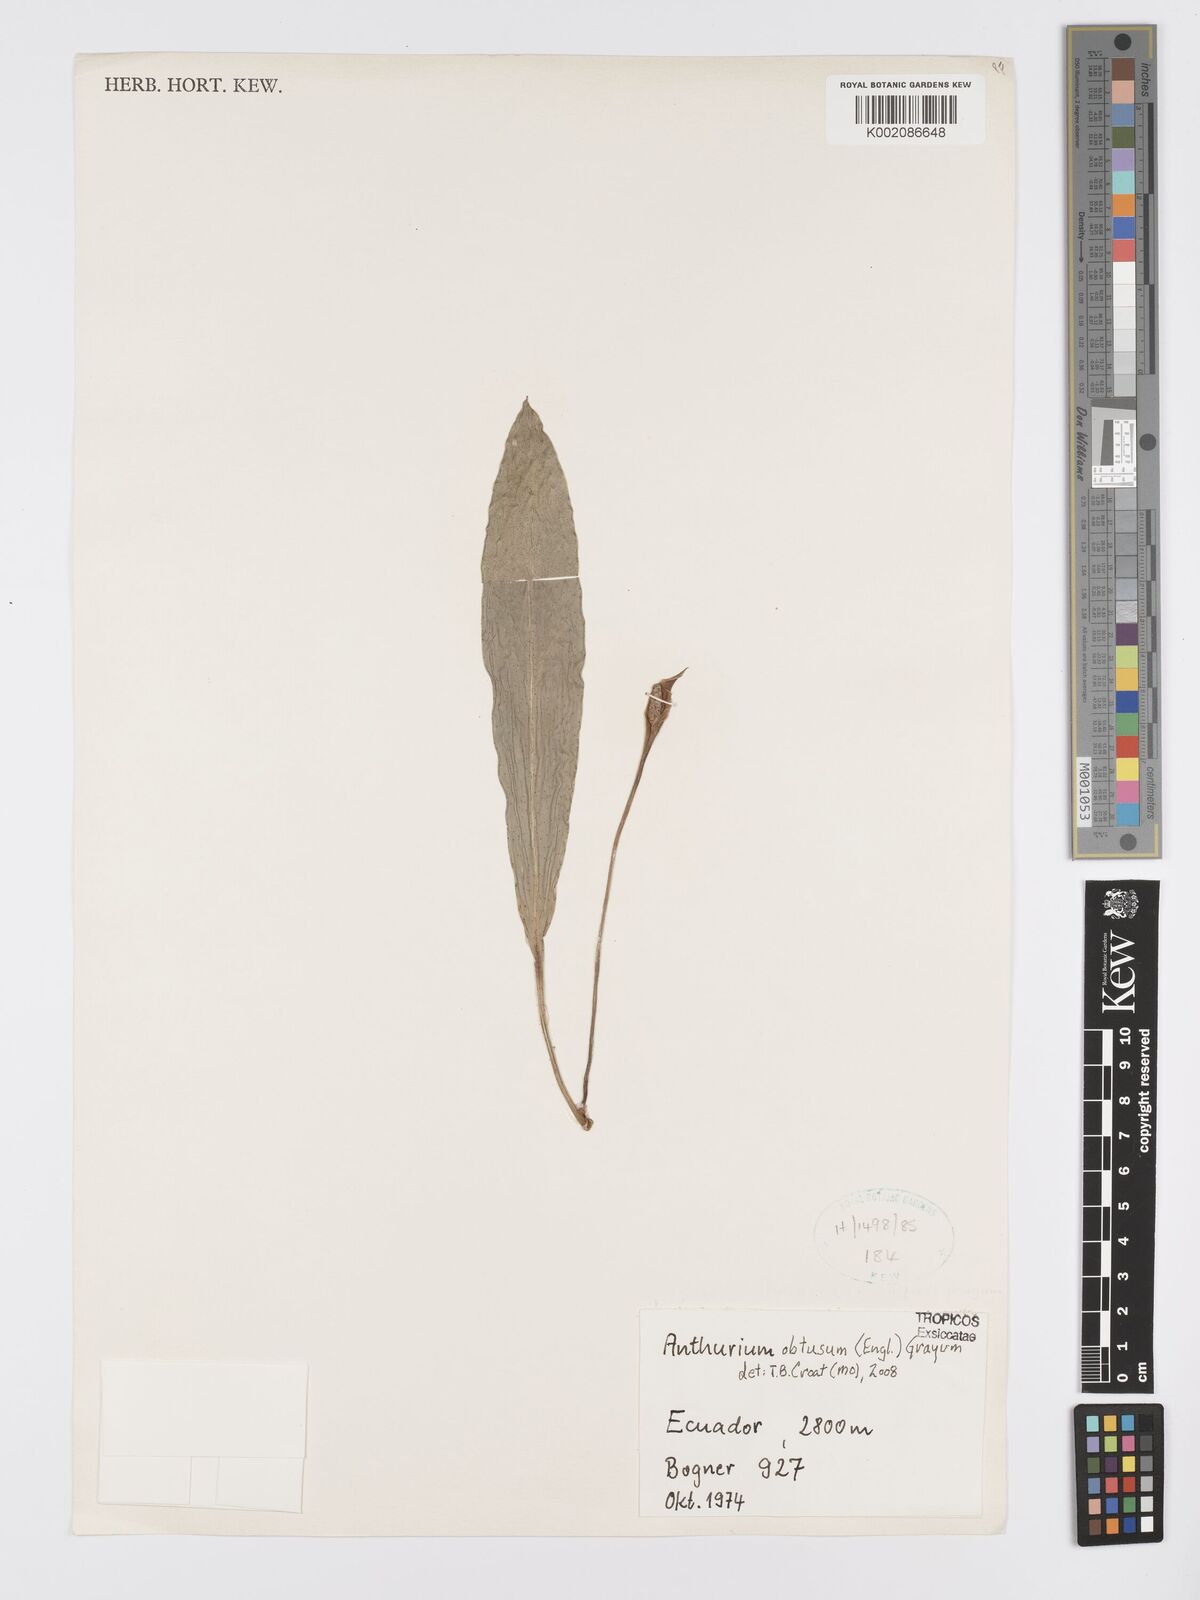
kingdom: Plantae
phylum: Tracheophyta
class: Liliopsida
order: Alismatales
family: Araceae
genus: Anthurium
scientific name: Anthurium obtusum
